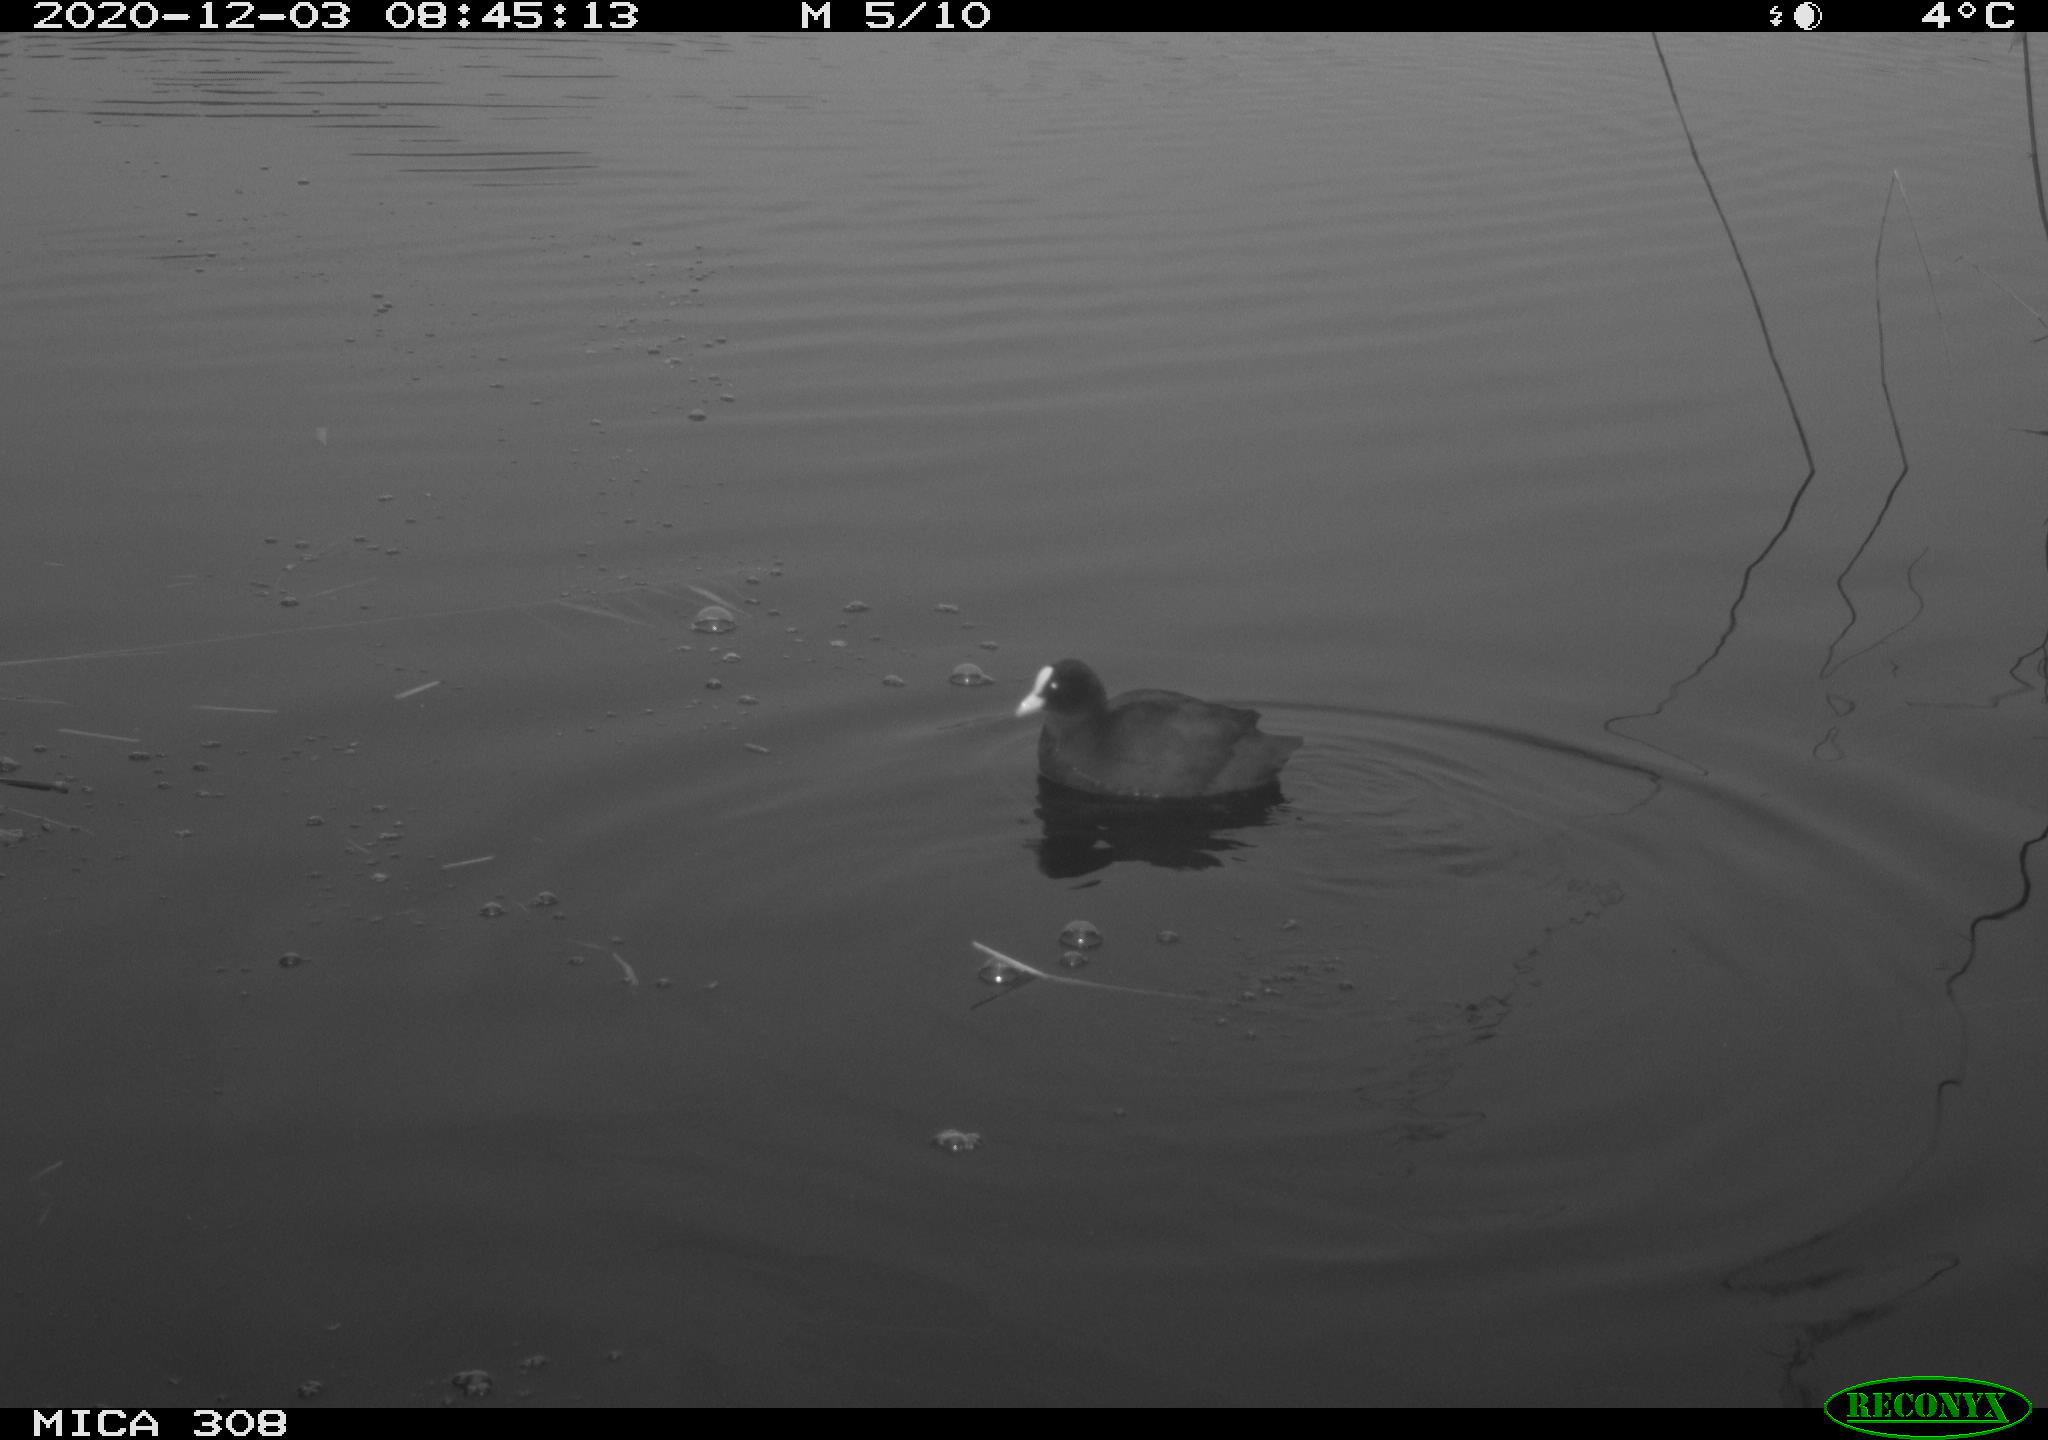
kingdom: Animalia
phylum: Chordata
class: Aves
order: Gruiformes
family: Rallidae
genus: Gallinula
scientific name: Gallinula chloropus
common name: Common moorhen
